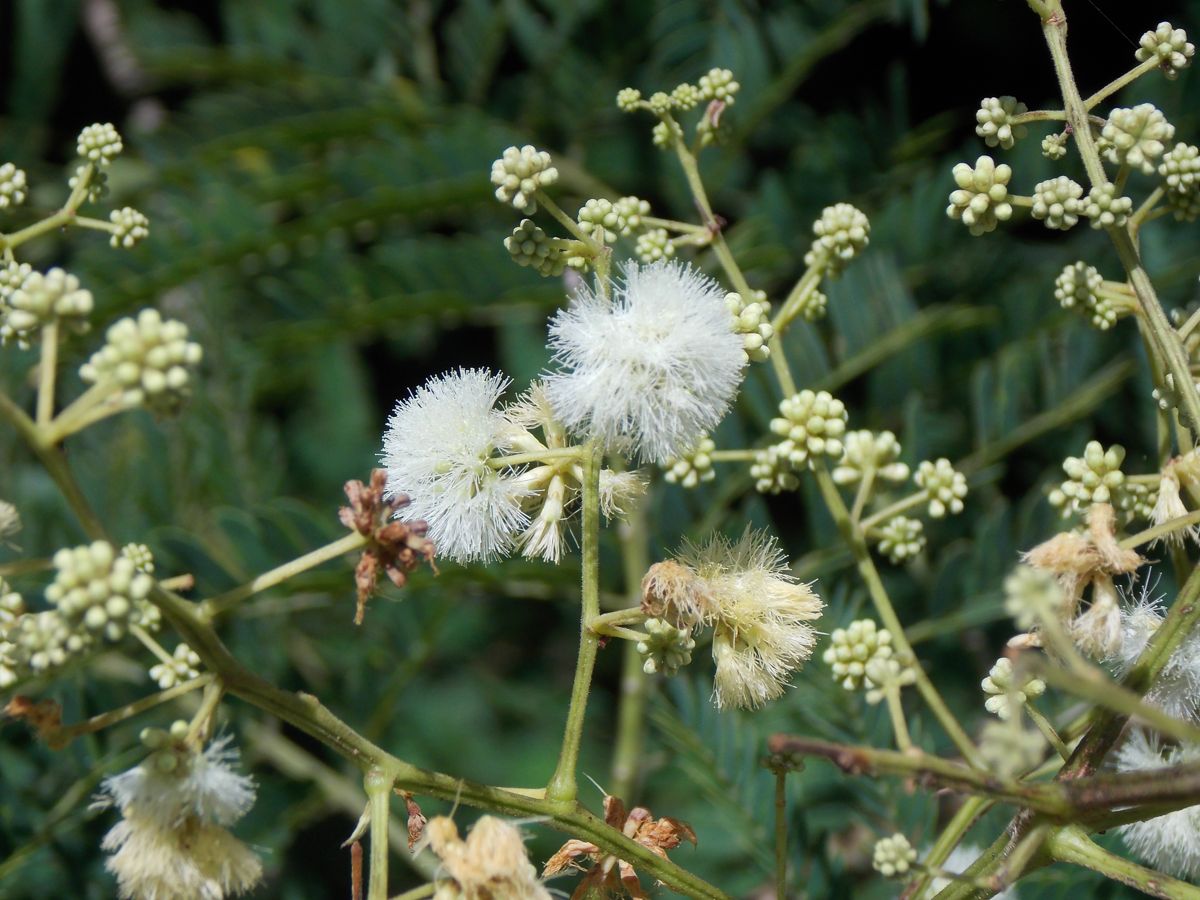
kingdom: Plantae
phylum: Tracheophyta
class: Magnoliopsida
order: Fabales
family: Fabaceae
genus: Senegalia
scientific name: Senegalia polyphylla
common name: White-tamarind
